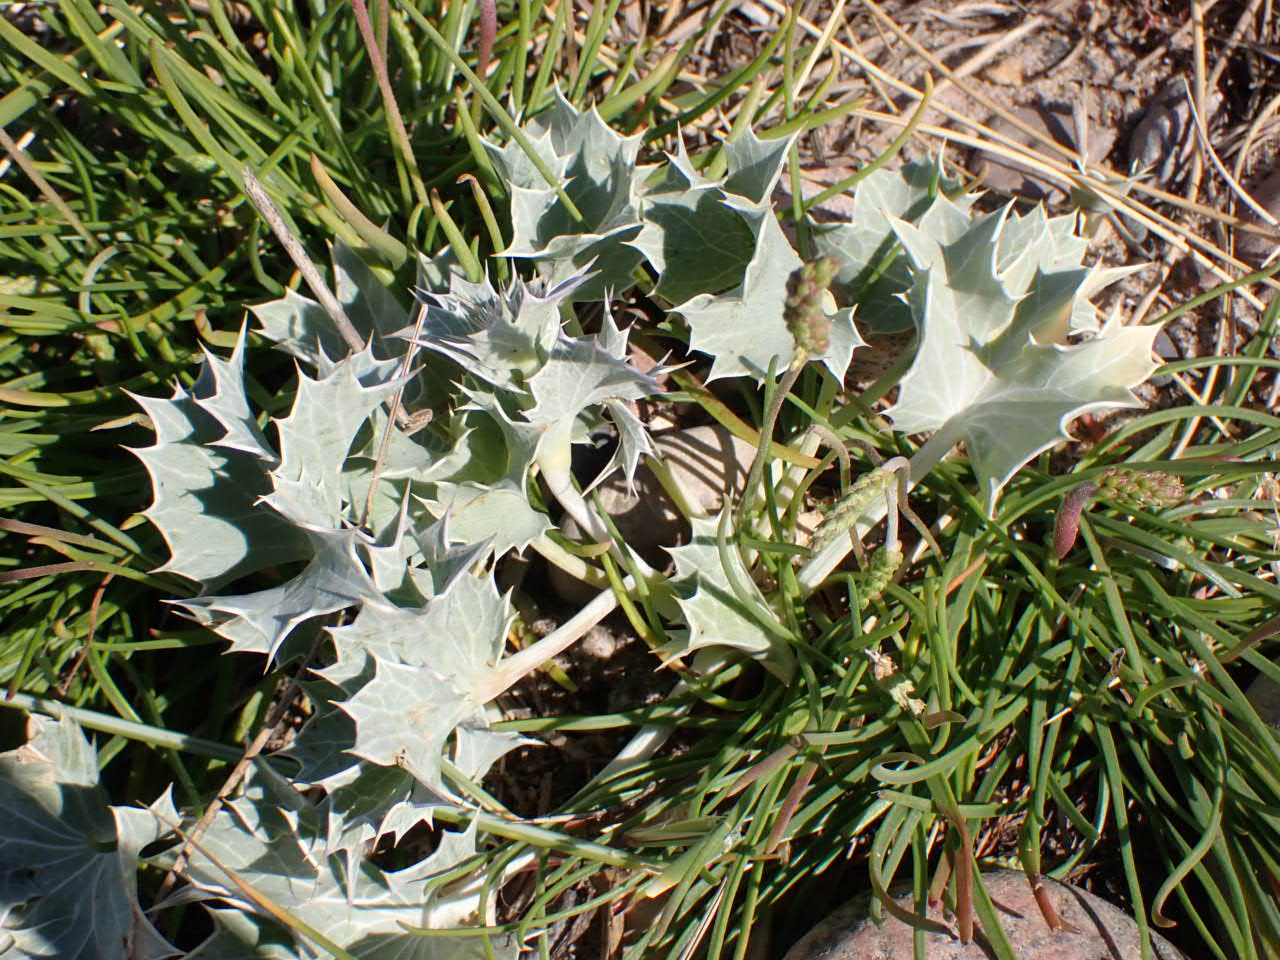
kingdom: Plantae
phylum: Tracheophyta
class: Magnoliopsida
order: Apiales
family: Apiaceae
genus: Eryngium
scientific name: Eryngium maritimum
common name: Strand-mandstro
